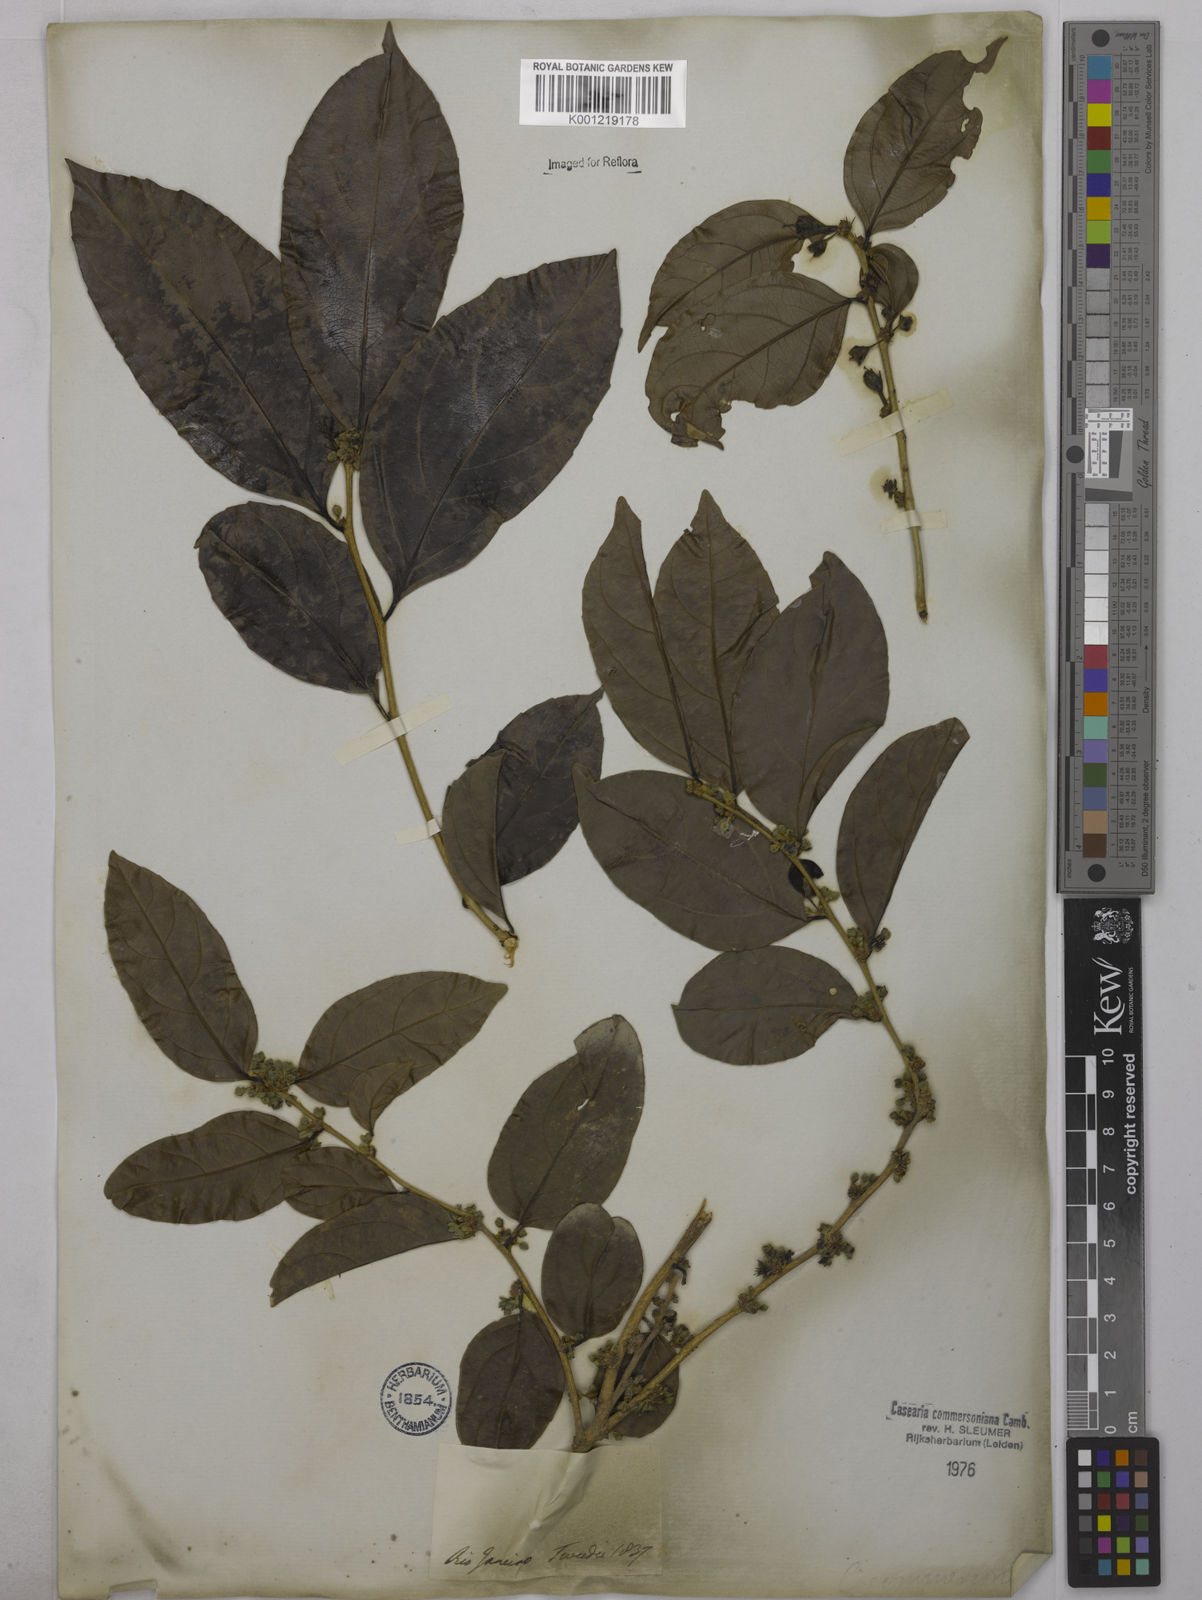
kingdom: Plantae
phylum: Tracheophyta
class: Magnoliopsida
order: Malpighiales
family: Salicaceae
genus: Piparea
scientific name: Piparea dentata
